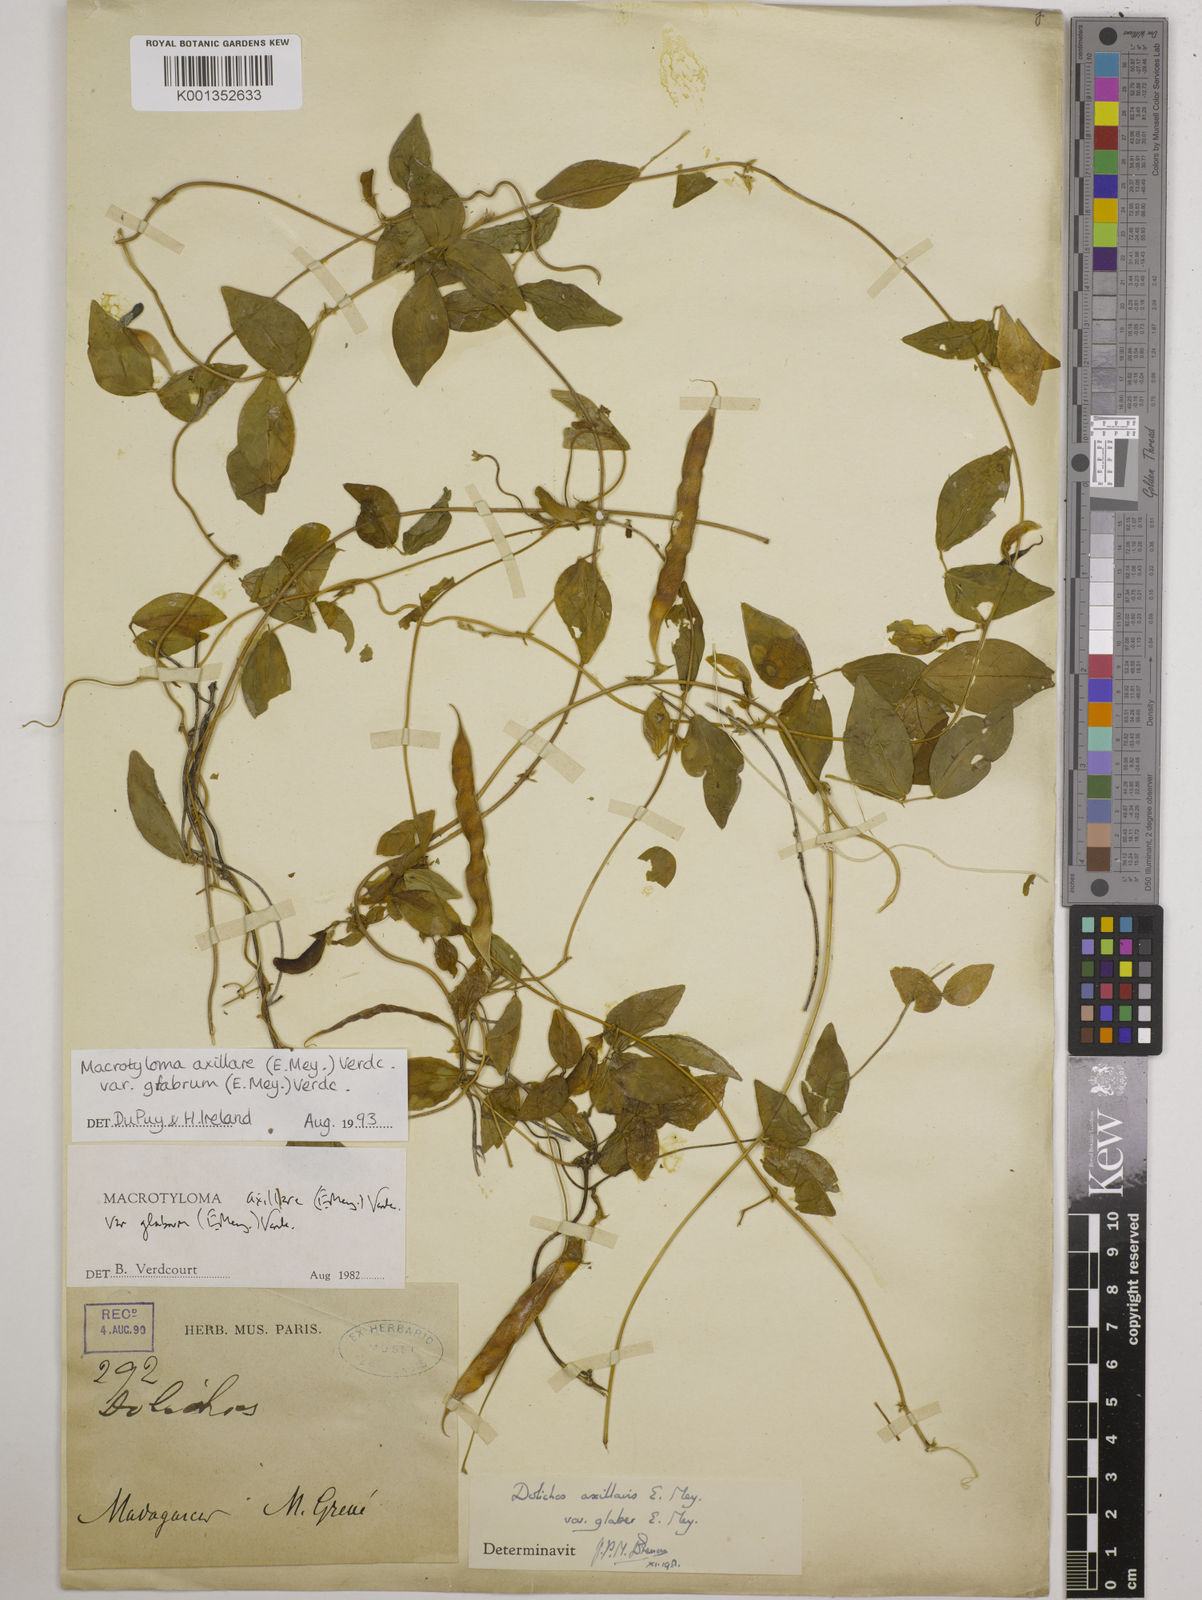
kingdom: Plantae
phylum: Tracheophyta
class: Magnoliopsida
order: Fabales
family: Fabaceae
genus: Macrotyloma
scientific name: Macrotyloma
